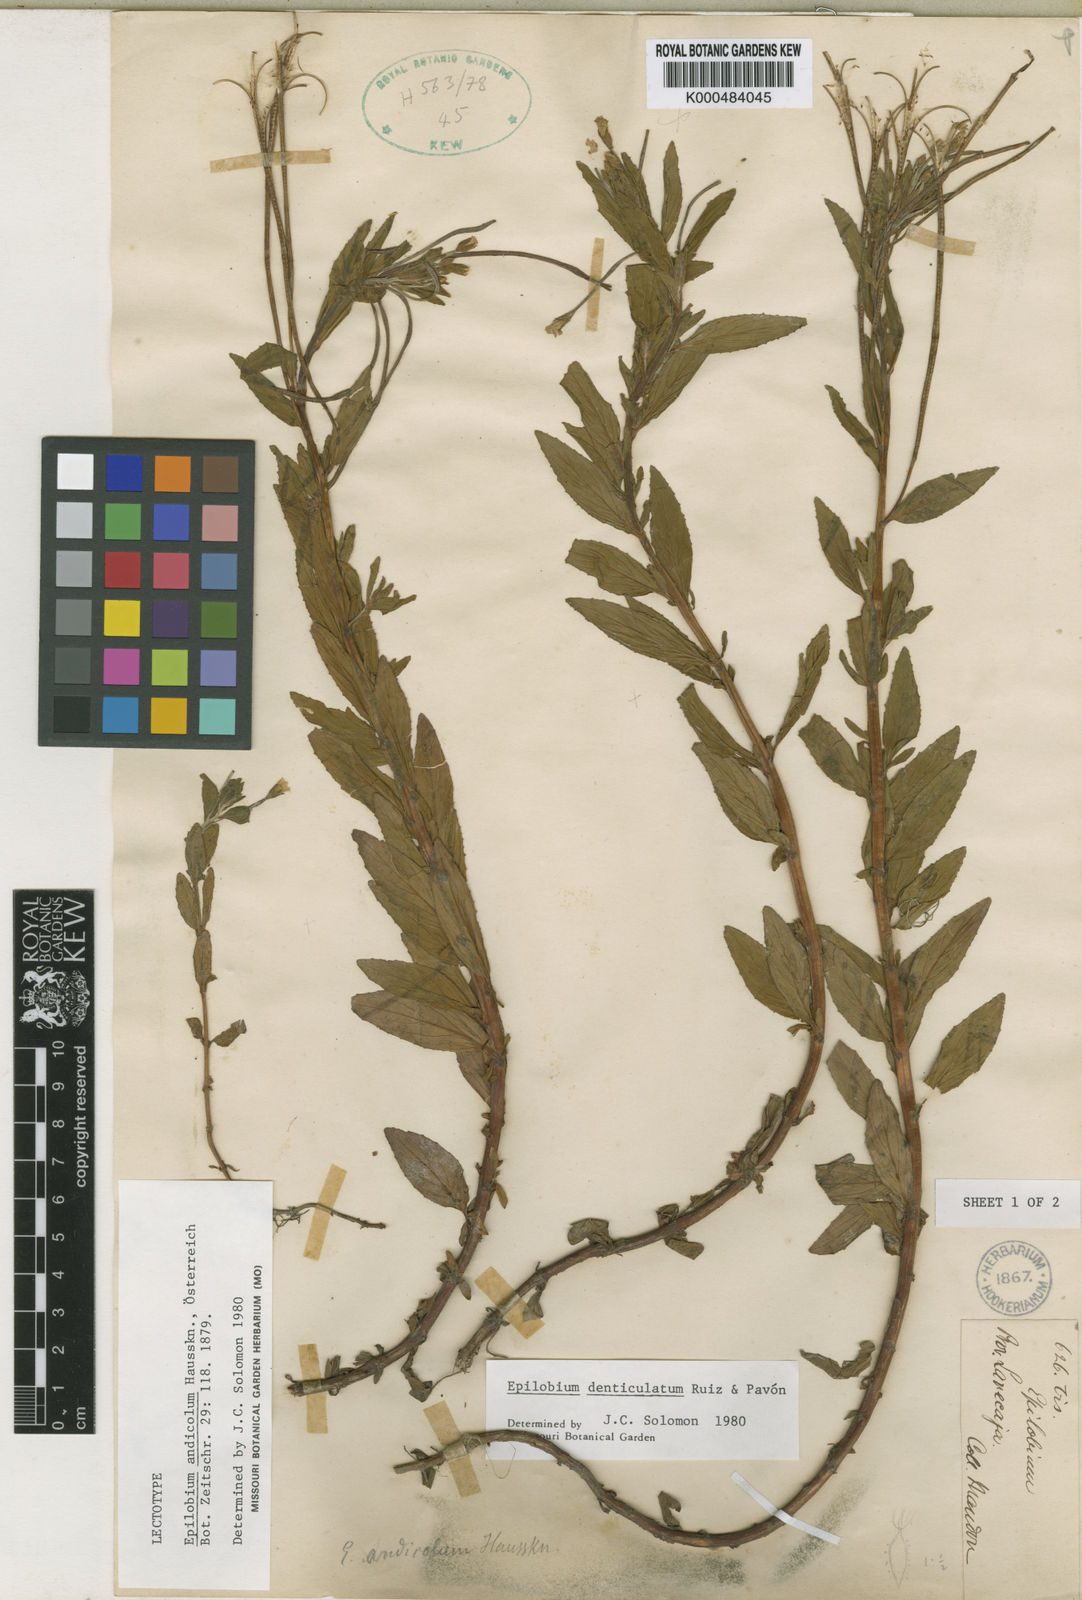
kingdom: Plantae
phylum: Tracheophyta
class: Magnoliopsida
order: Myrtales
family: Onagraceae
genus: Epilobium
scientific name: Epilobium denticulatum
